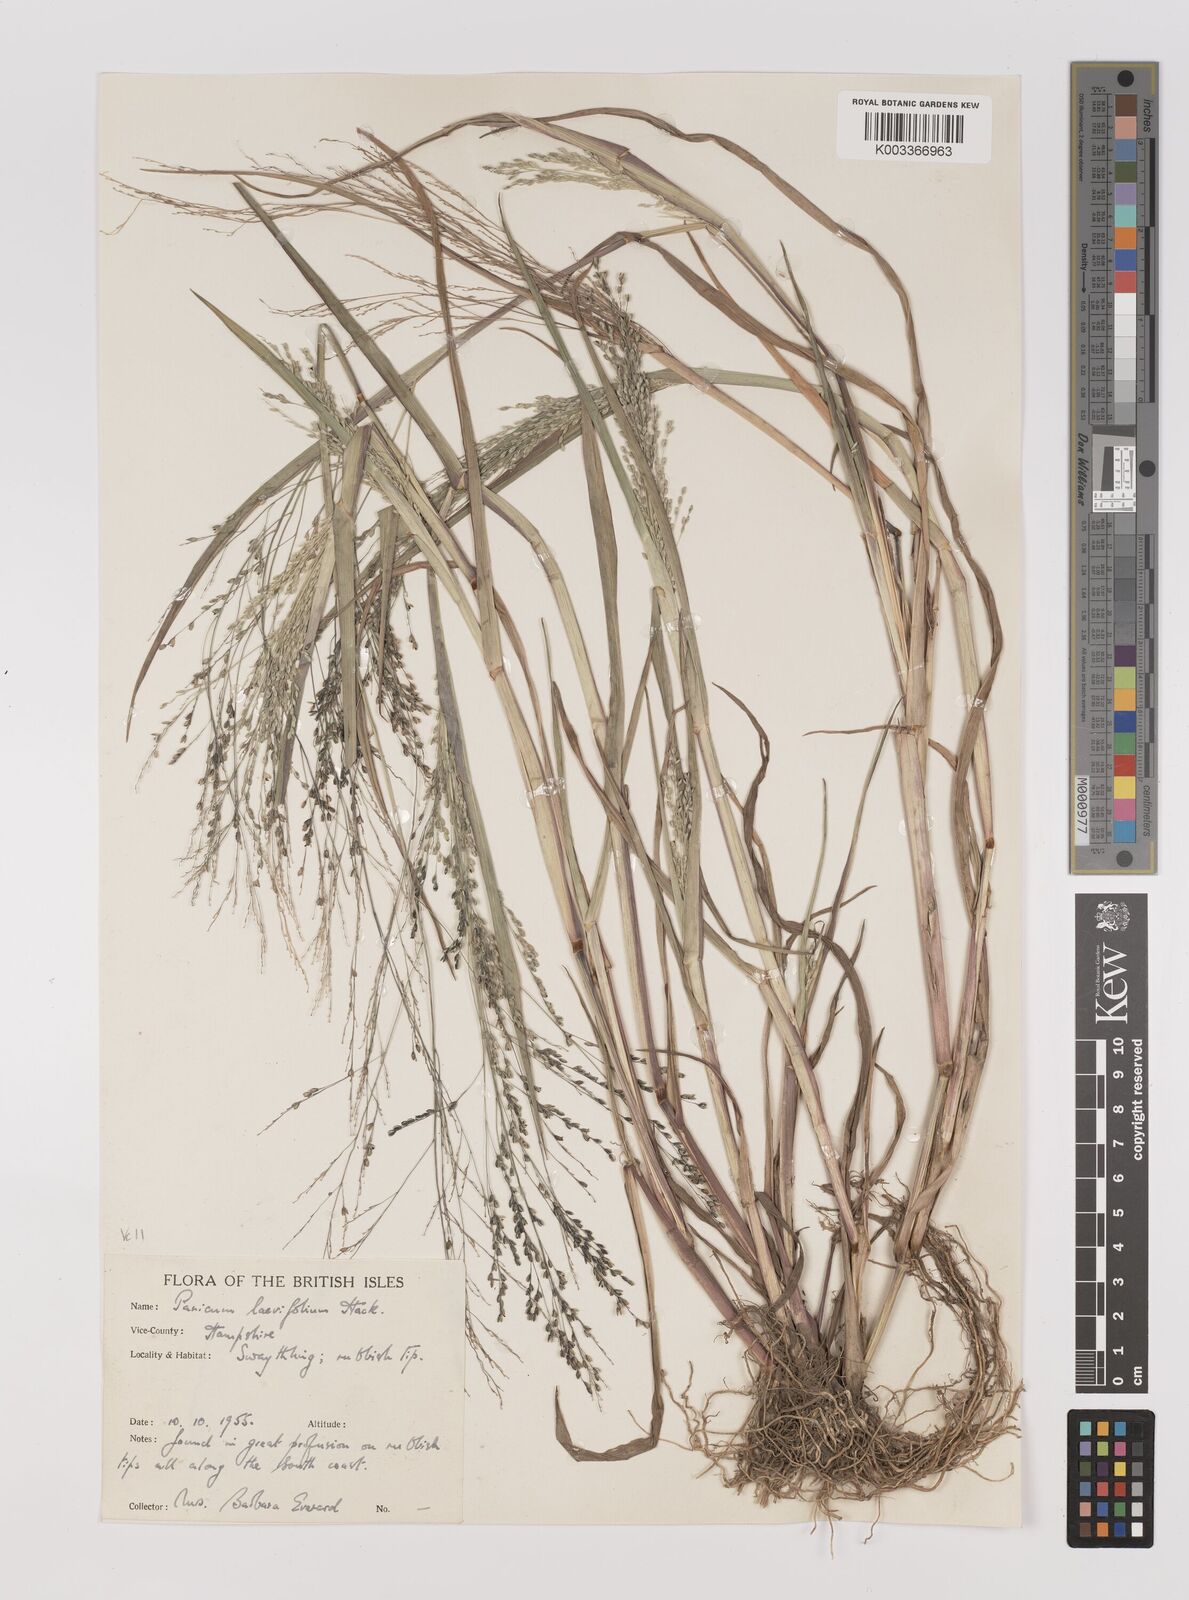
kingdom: Plantae
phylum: Tracheophyta
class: Liliopsida
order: Poales
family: Poaceae
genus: Panicum
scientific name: Panicum schinzii
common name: Sweet grass
